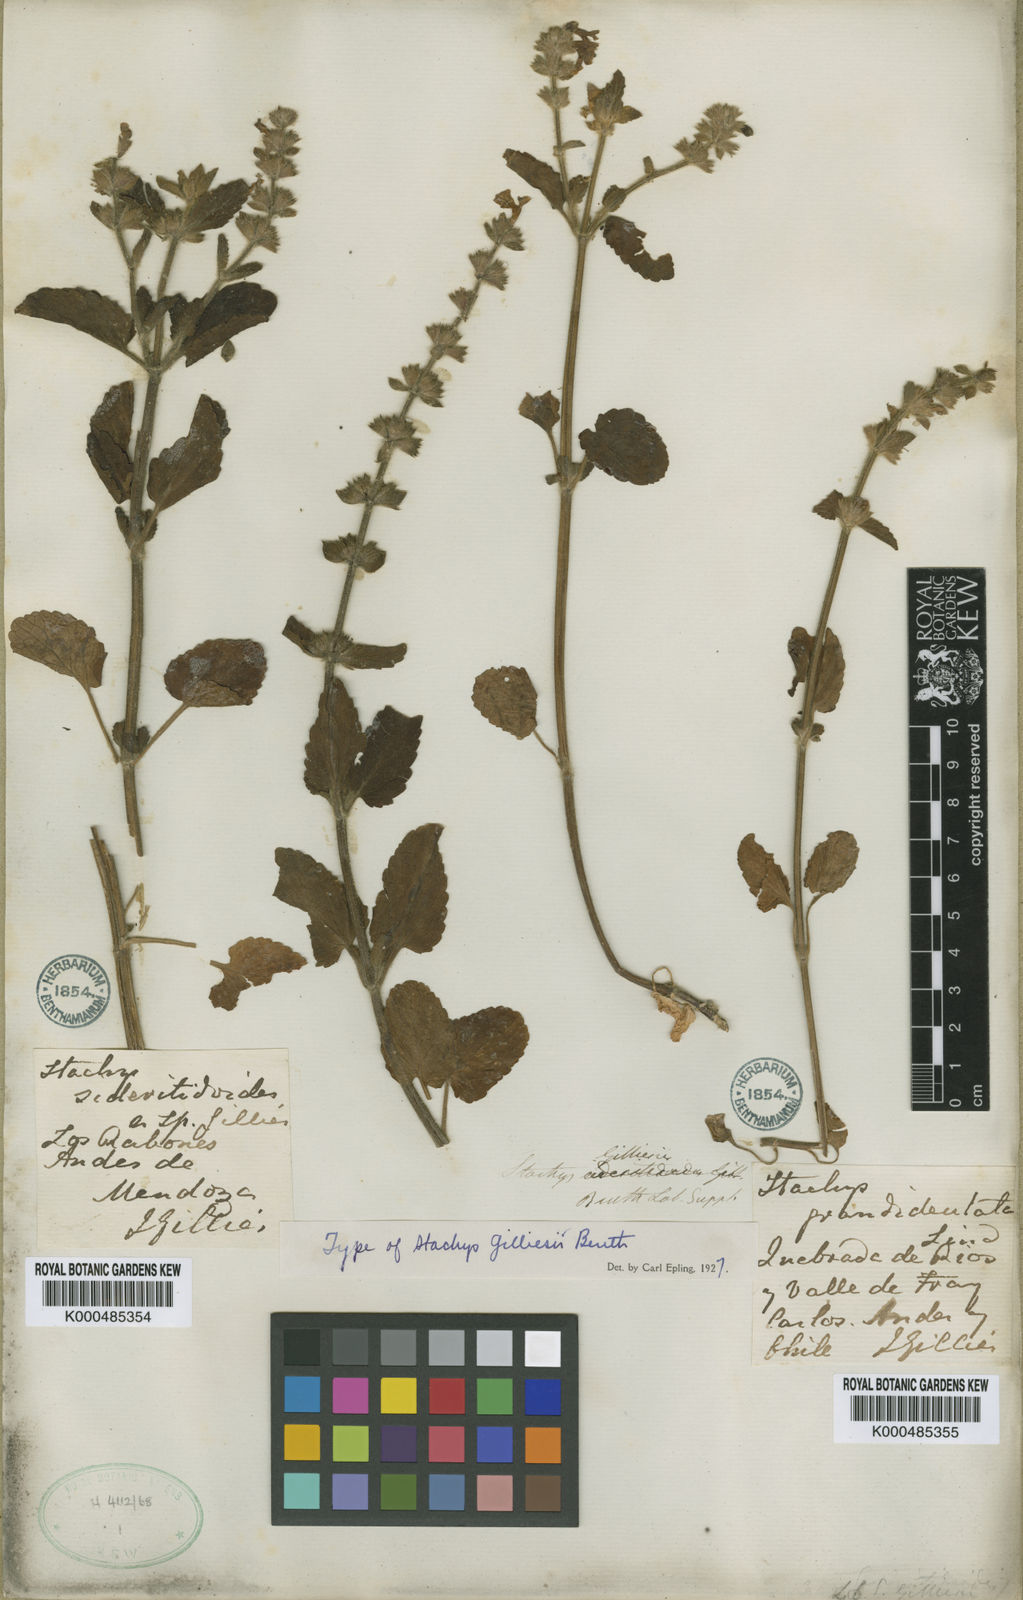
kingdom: Plantae
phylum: Tracheophyta
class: Magnoliopsida
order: Lamiales
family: Lamiaceae
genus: Stachys
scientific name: Stachys gilliesii
